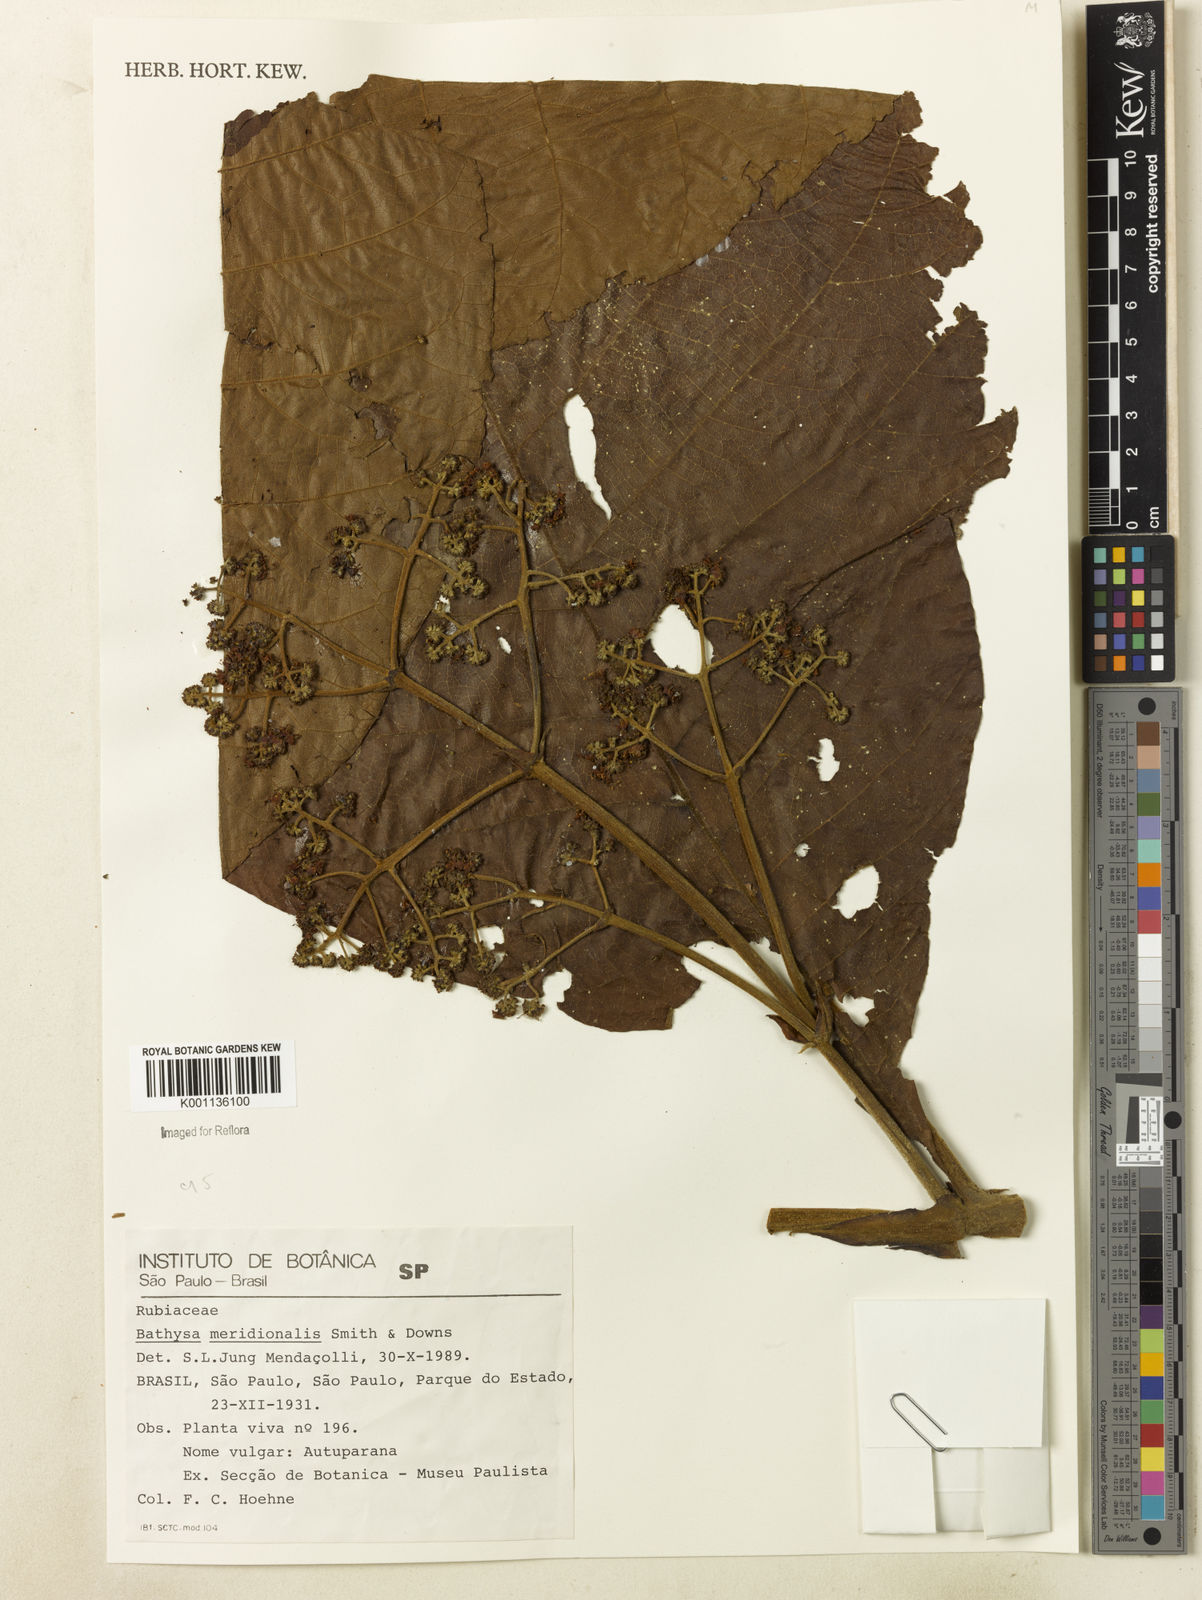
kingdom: Plantae
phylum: Tracheophyta
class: Magnoliopsida
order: Gentianales
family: Rubiaceae
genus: Bathysa
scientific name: Bathysa australis
